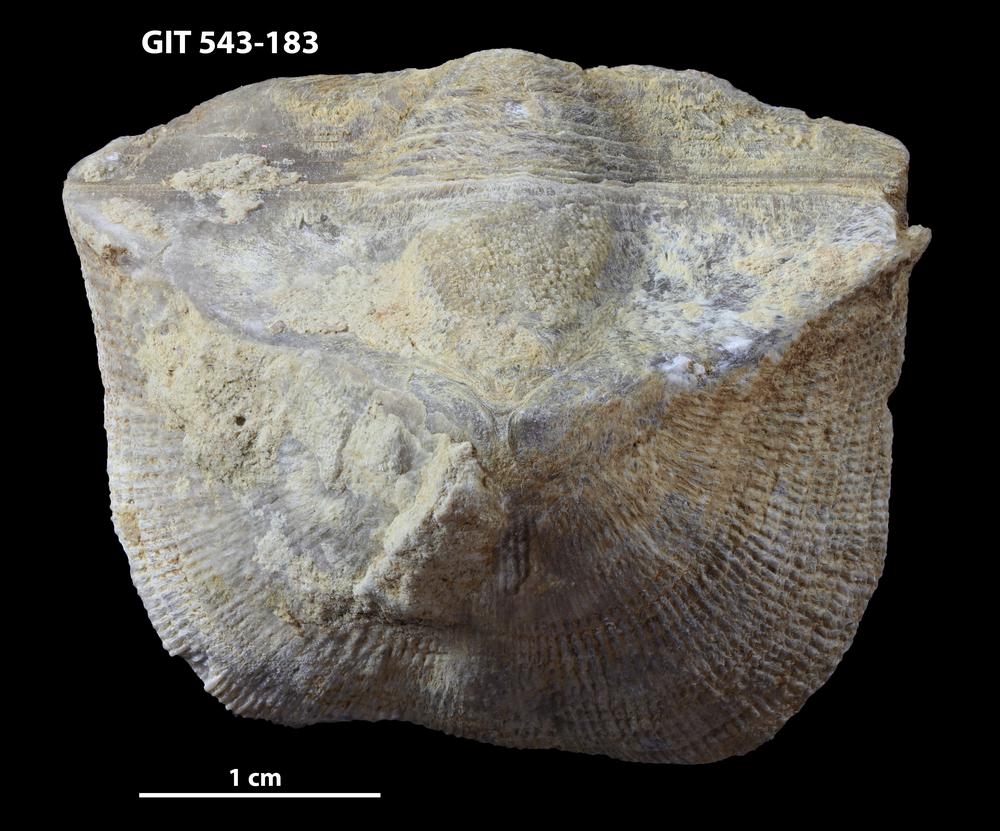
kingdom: Animalia
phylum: Brachiopoda
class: Rhynchonellata
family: Clitambonitidae
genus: Clinambon
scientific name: Clinambon anomalus
